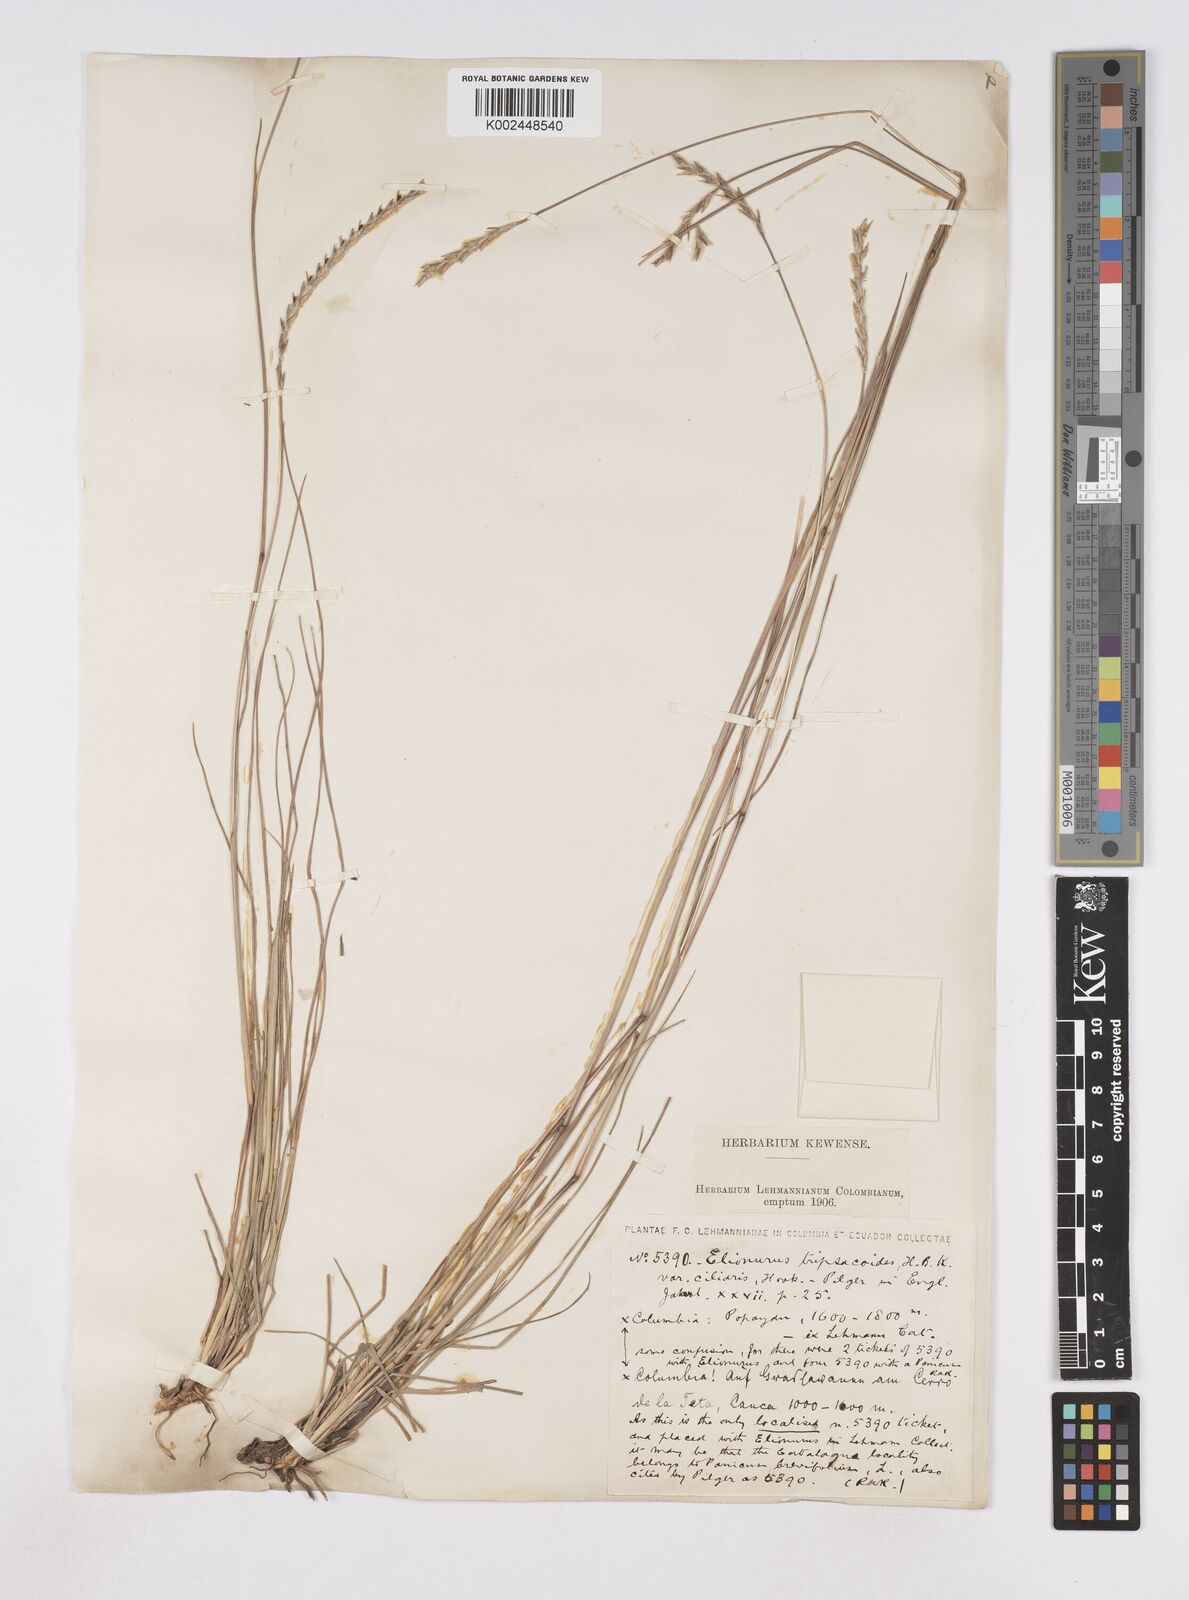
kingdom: Plantae
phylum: Tracheophyta
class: Liliopsida
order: Poales
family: Poaceae
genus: Elionurus
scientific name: Elionurus muticus
